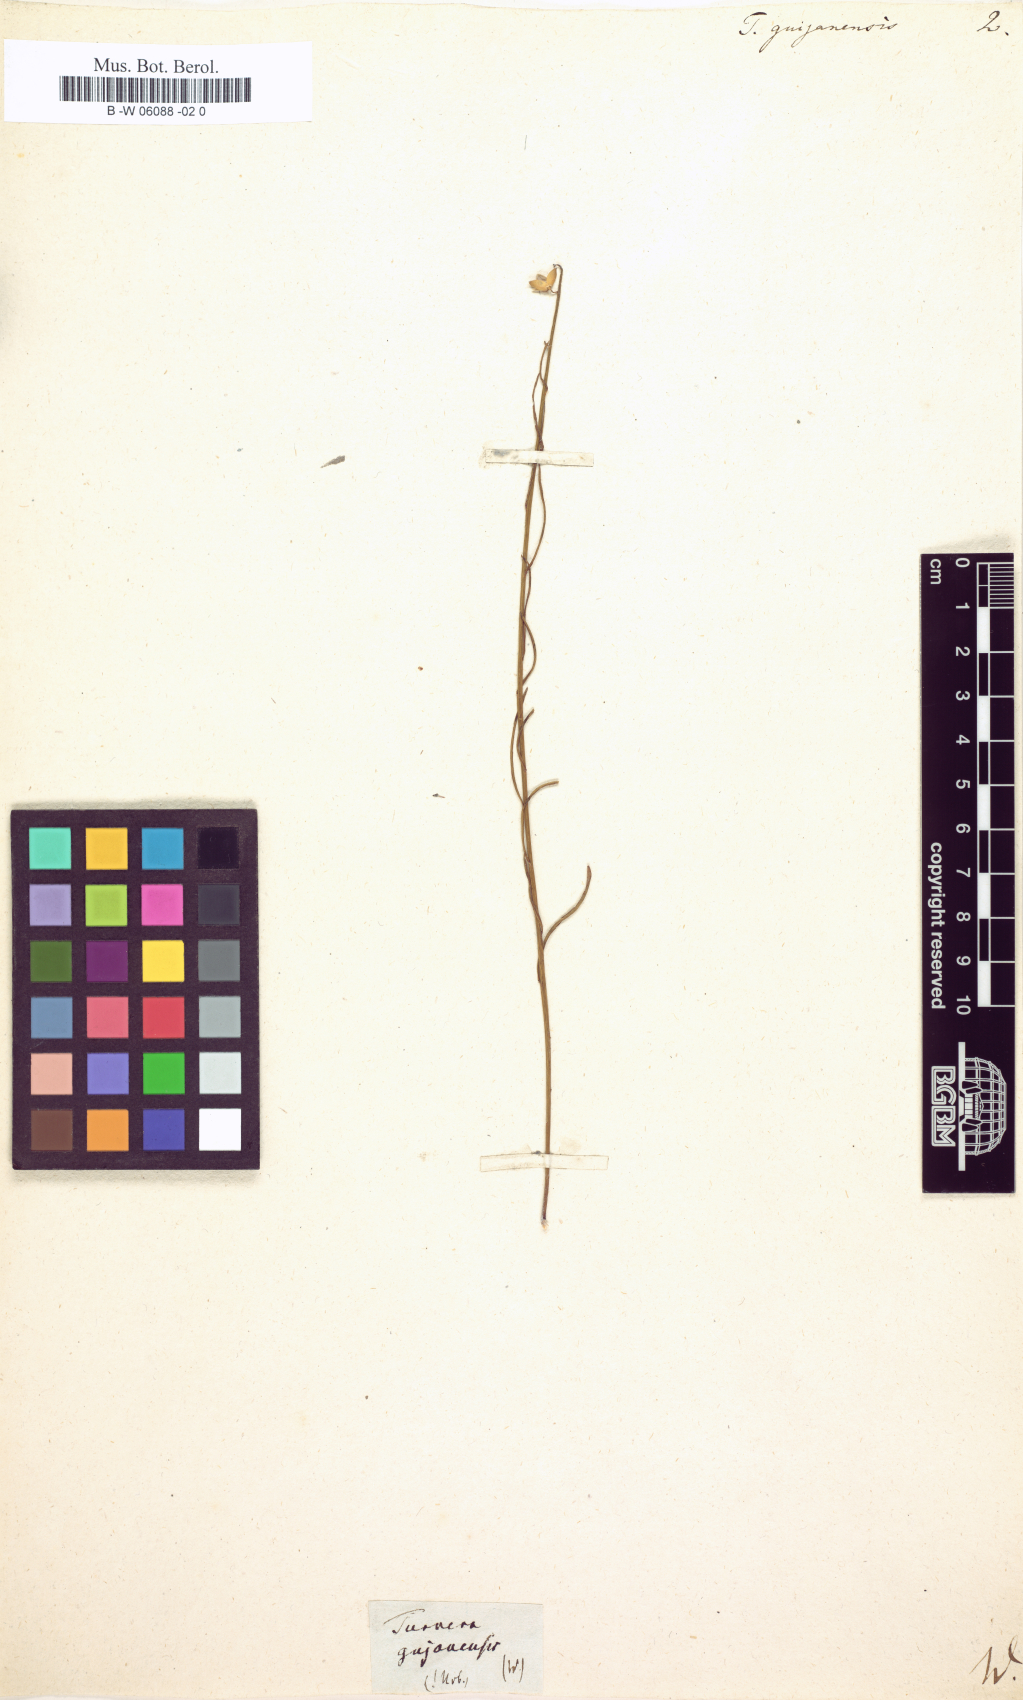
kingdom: Plantae
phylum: Tracheophyta
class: Magnoliopsida
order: Malpighiales
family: Turneraceae
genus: Turnera
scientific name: Turnera guianensis
